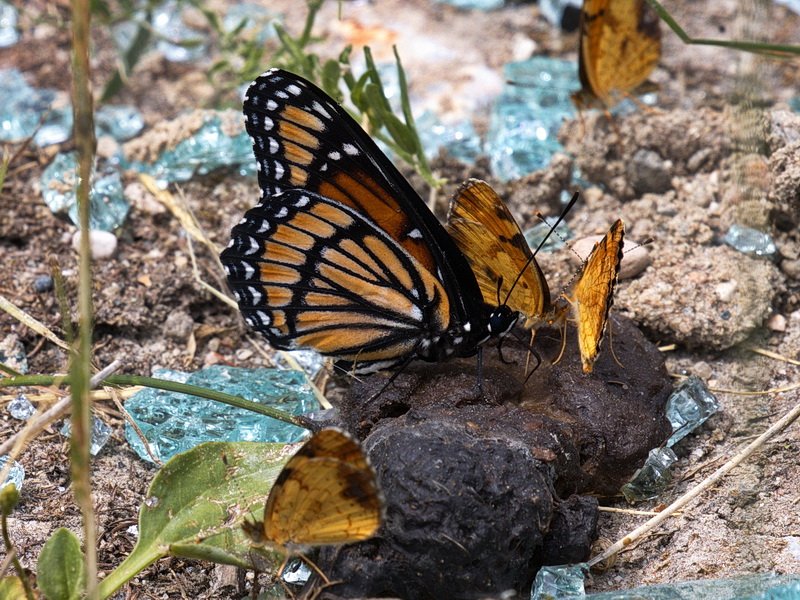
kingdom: Animalia
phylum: Arthropoda
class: Insecta
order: Lepidoptera
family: Nymphalidae
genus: Limenitis
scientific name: Limenitis archippus
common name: Viceroy
